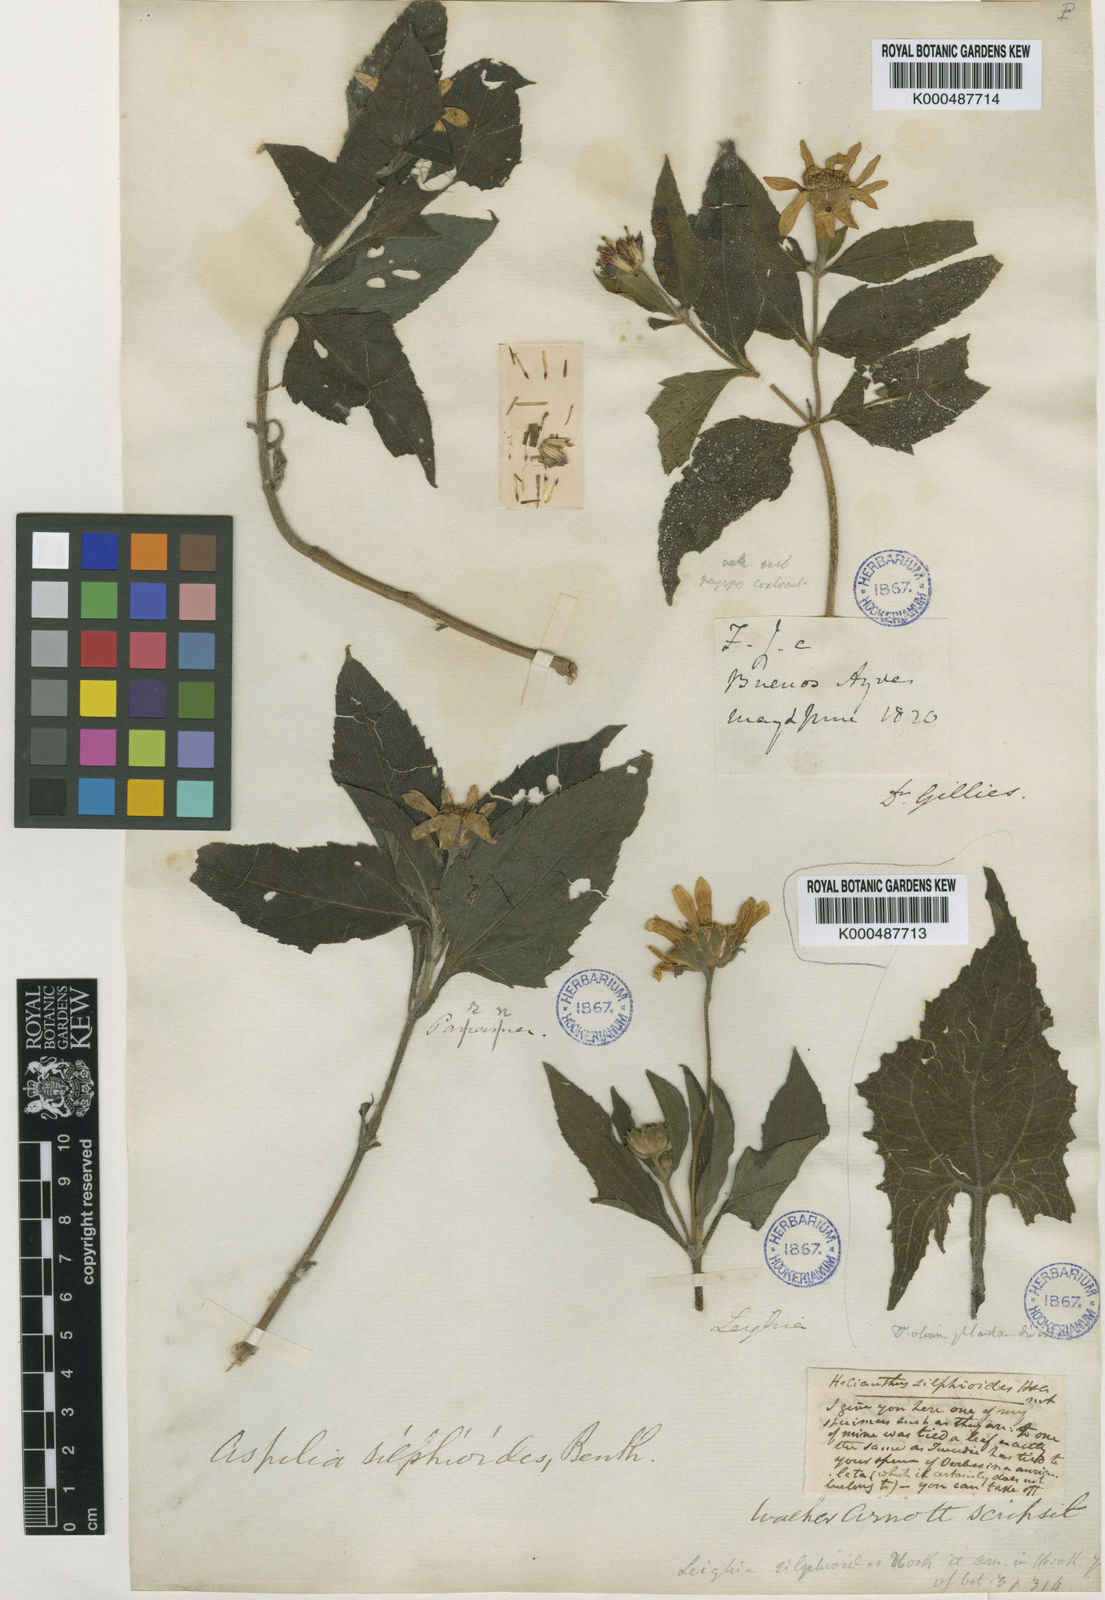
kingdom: Plantae
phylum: Tracheophyta
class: Magnoliopsida
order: Asterales
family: Asteraceae
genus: Wedelia
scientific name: Wedelia silphioides
